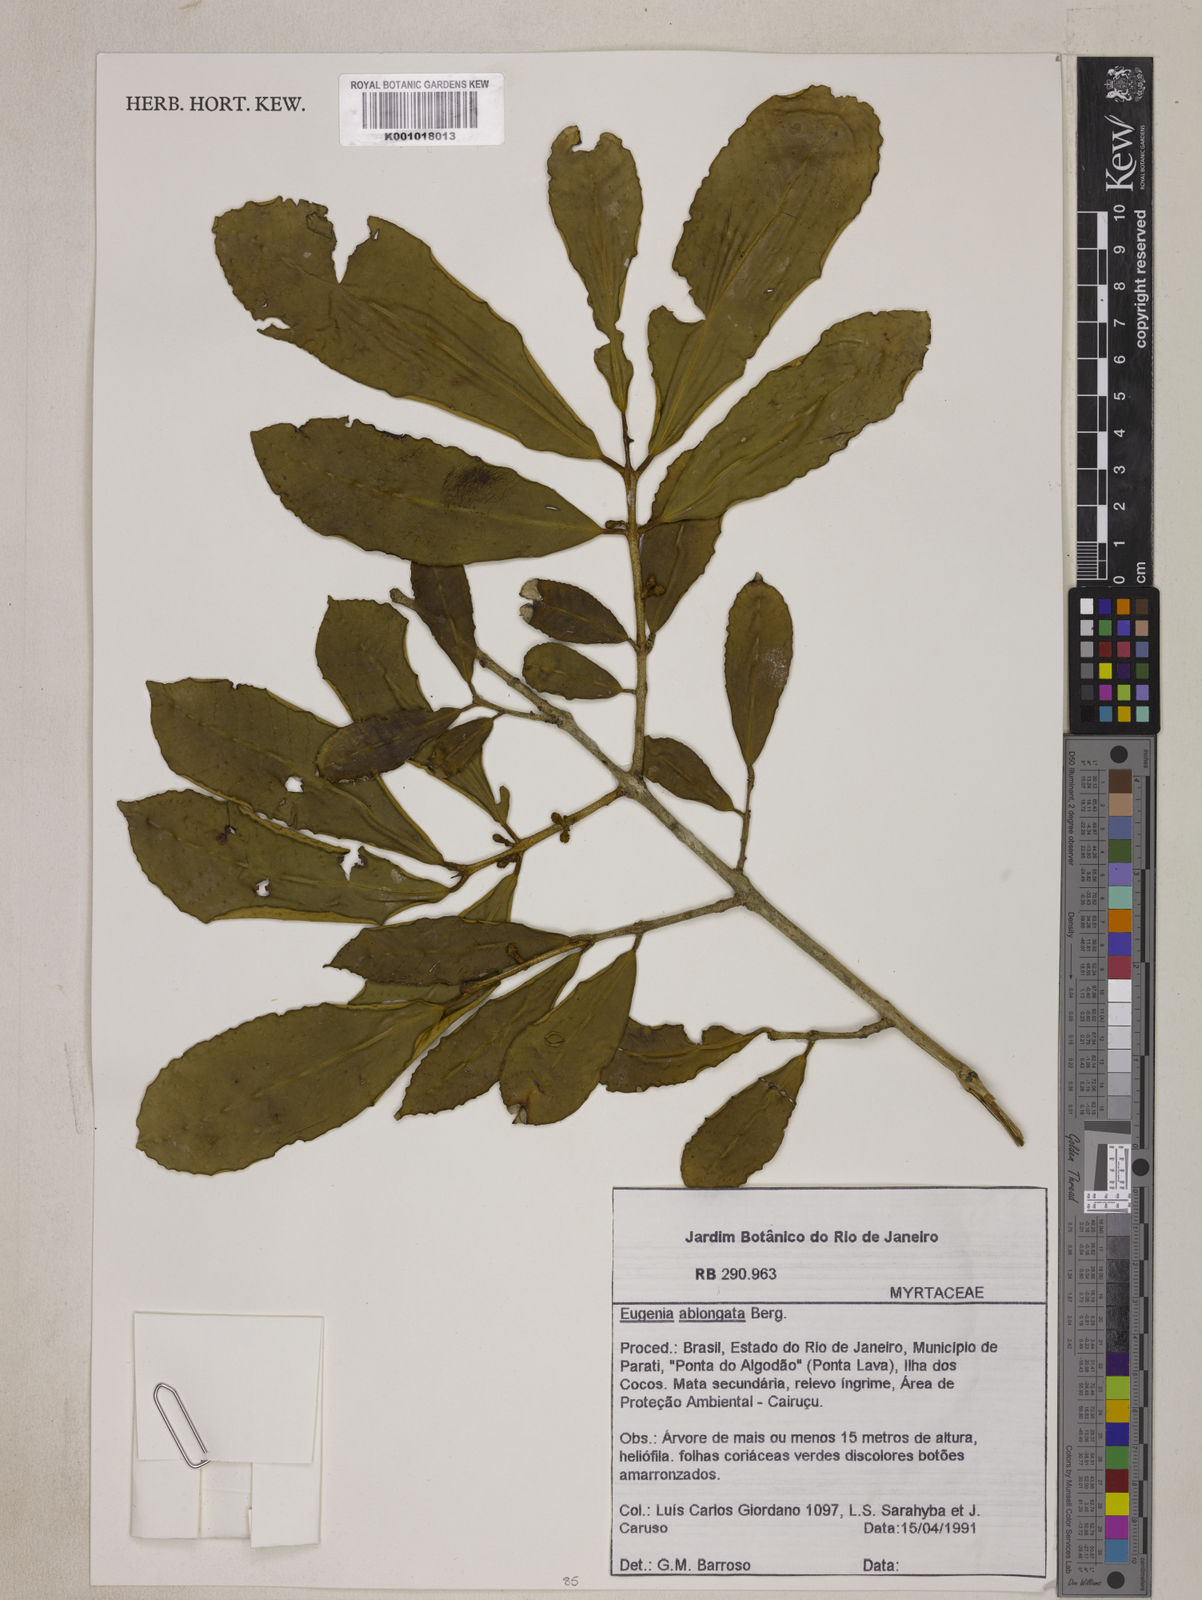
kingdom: Plantae
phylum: Tracheophyta
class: Magnoliopsida
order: Myrtales
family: Myrtaceae
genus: Eugenia
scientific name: Eugenia oblongata
